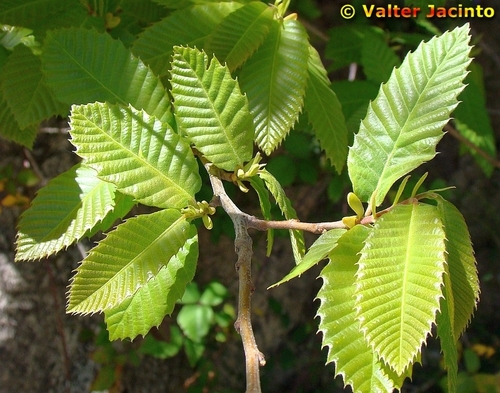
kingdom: Plantae
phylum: Tracheophyta
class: Magnoliopsida
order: Fagales
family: Fagaceae
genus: Castanea
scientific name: Castanea sativa
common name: Sweet chestnut
